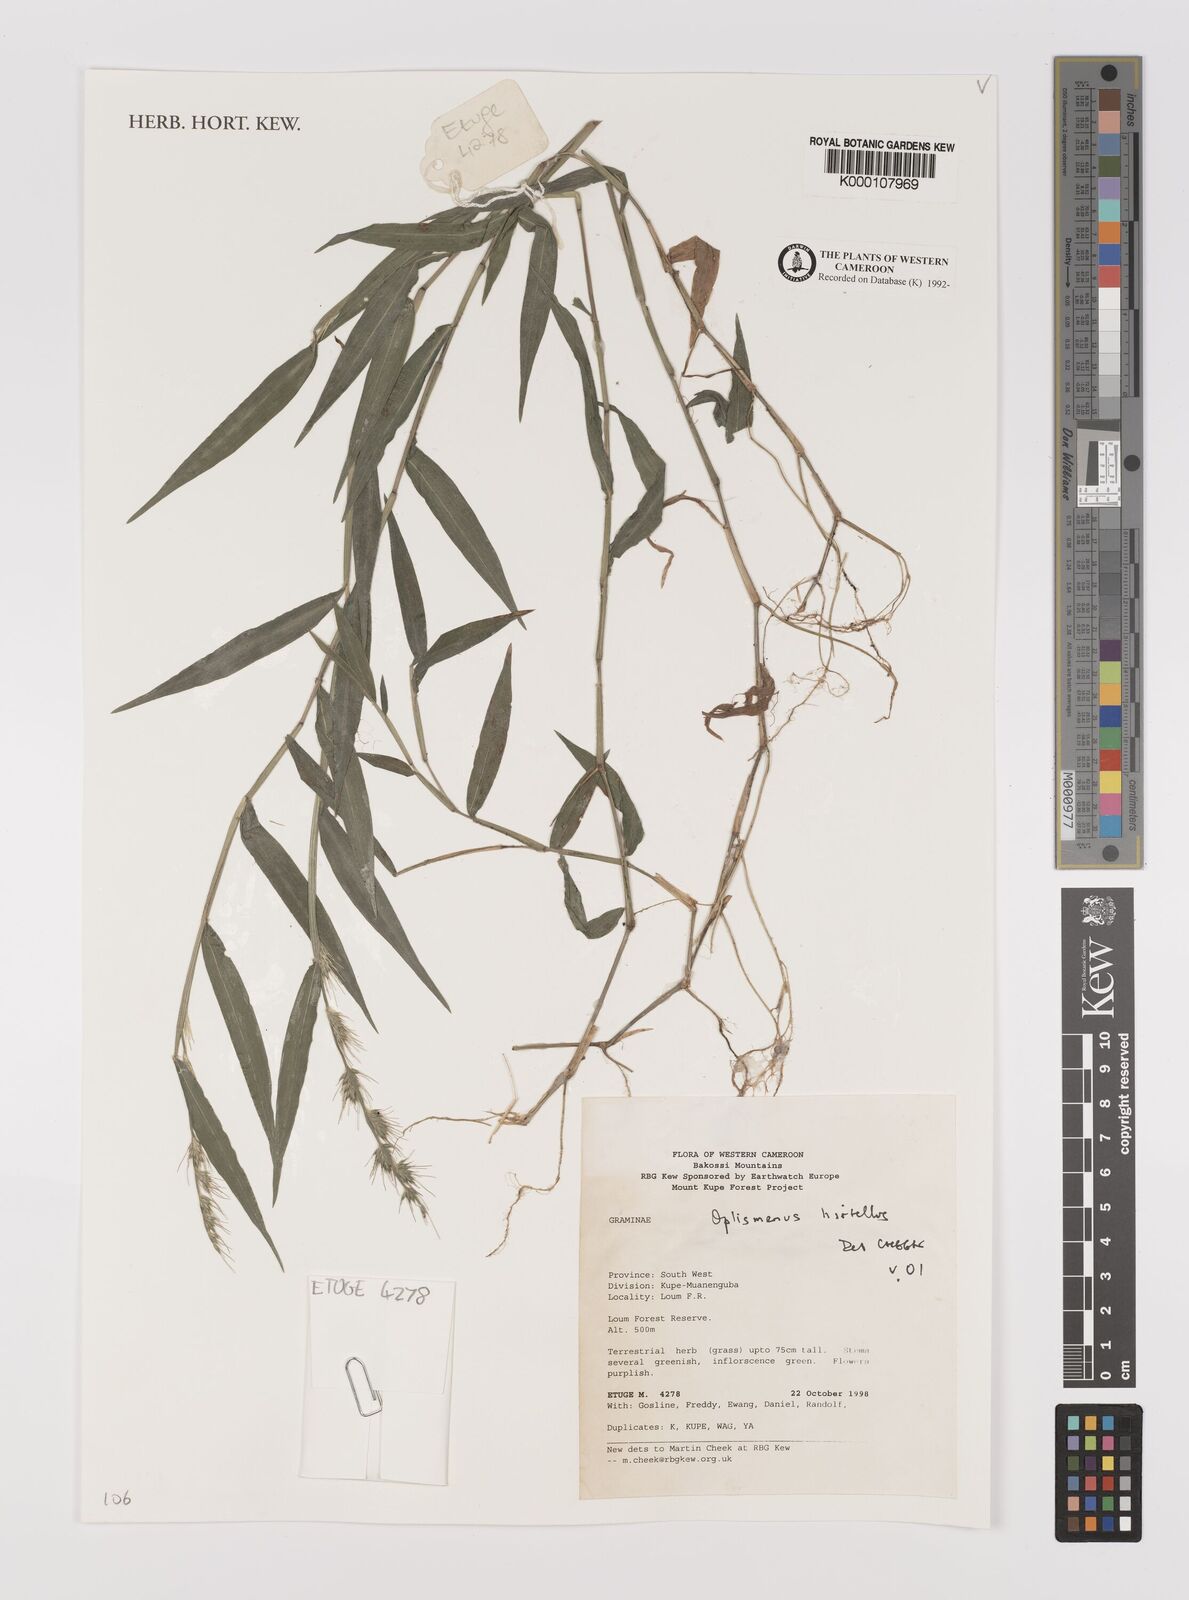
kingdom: Plantae
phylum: Tracheophyta
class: Liliopsida
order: Poales
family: Poaceae
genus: Oplismenus
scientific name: Oplismenus hirtellus
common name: Basketgrass
